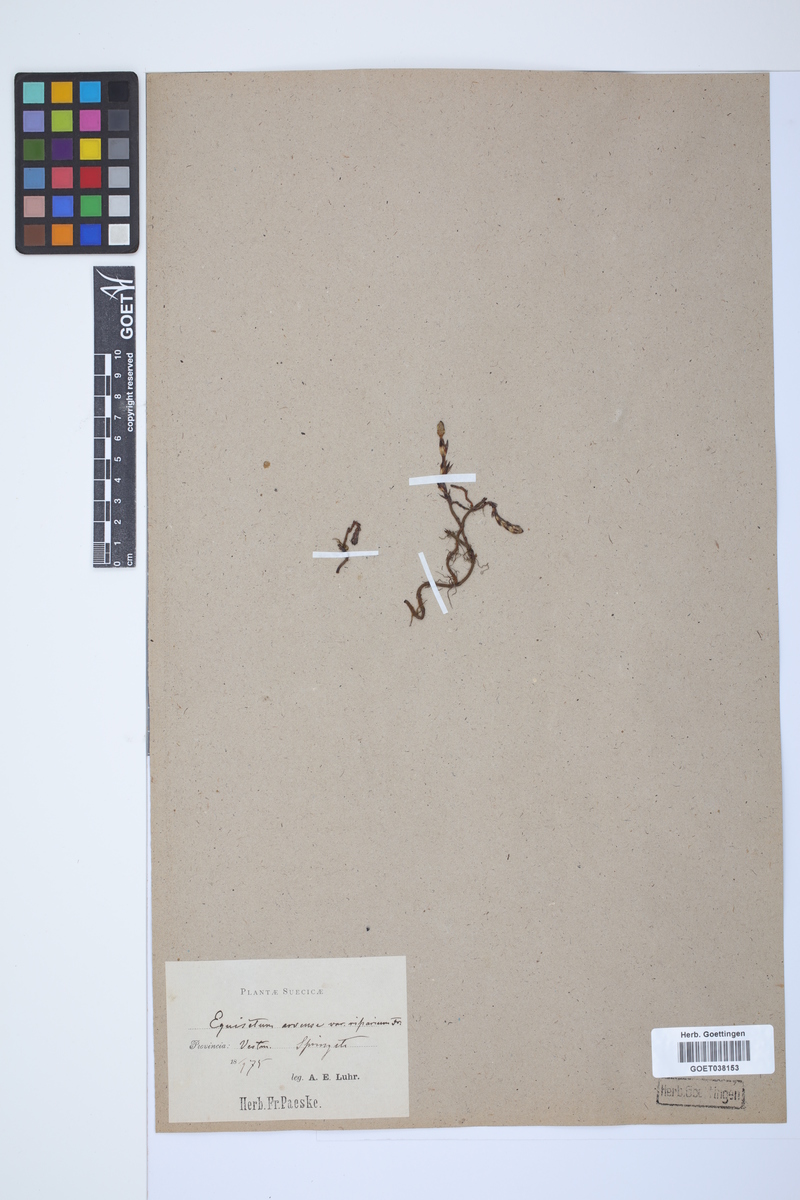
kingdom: Plantae
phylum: Tracheophyta
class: Polypodiopsida
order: Equisetales
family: Equisetaceae
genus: Equisetum
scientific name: Equisetum arvense
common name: Field horsetail
